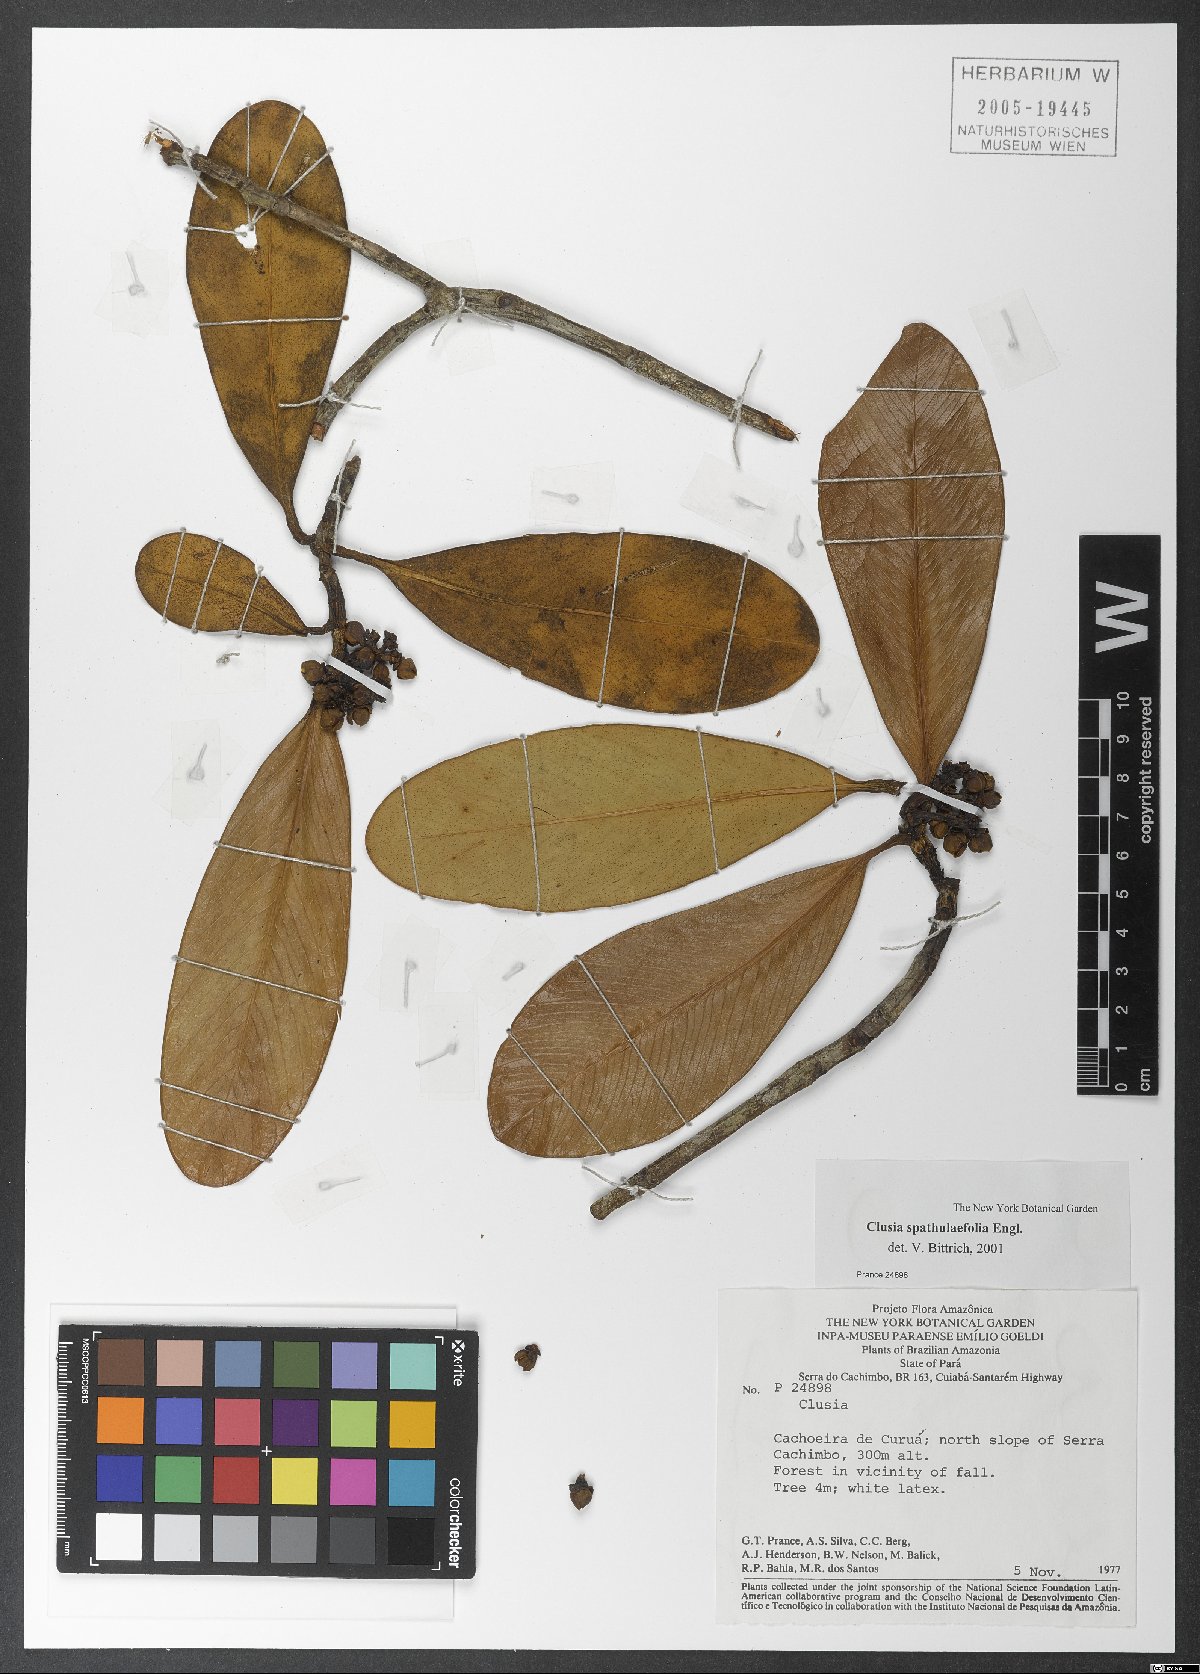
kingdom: Plantae
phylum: Tracheophyta
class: Magnoliopsida
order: Malpighiales
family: Clusiaceae
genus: Clusia
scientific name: Clusia spathulifolia
